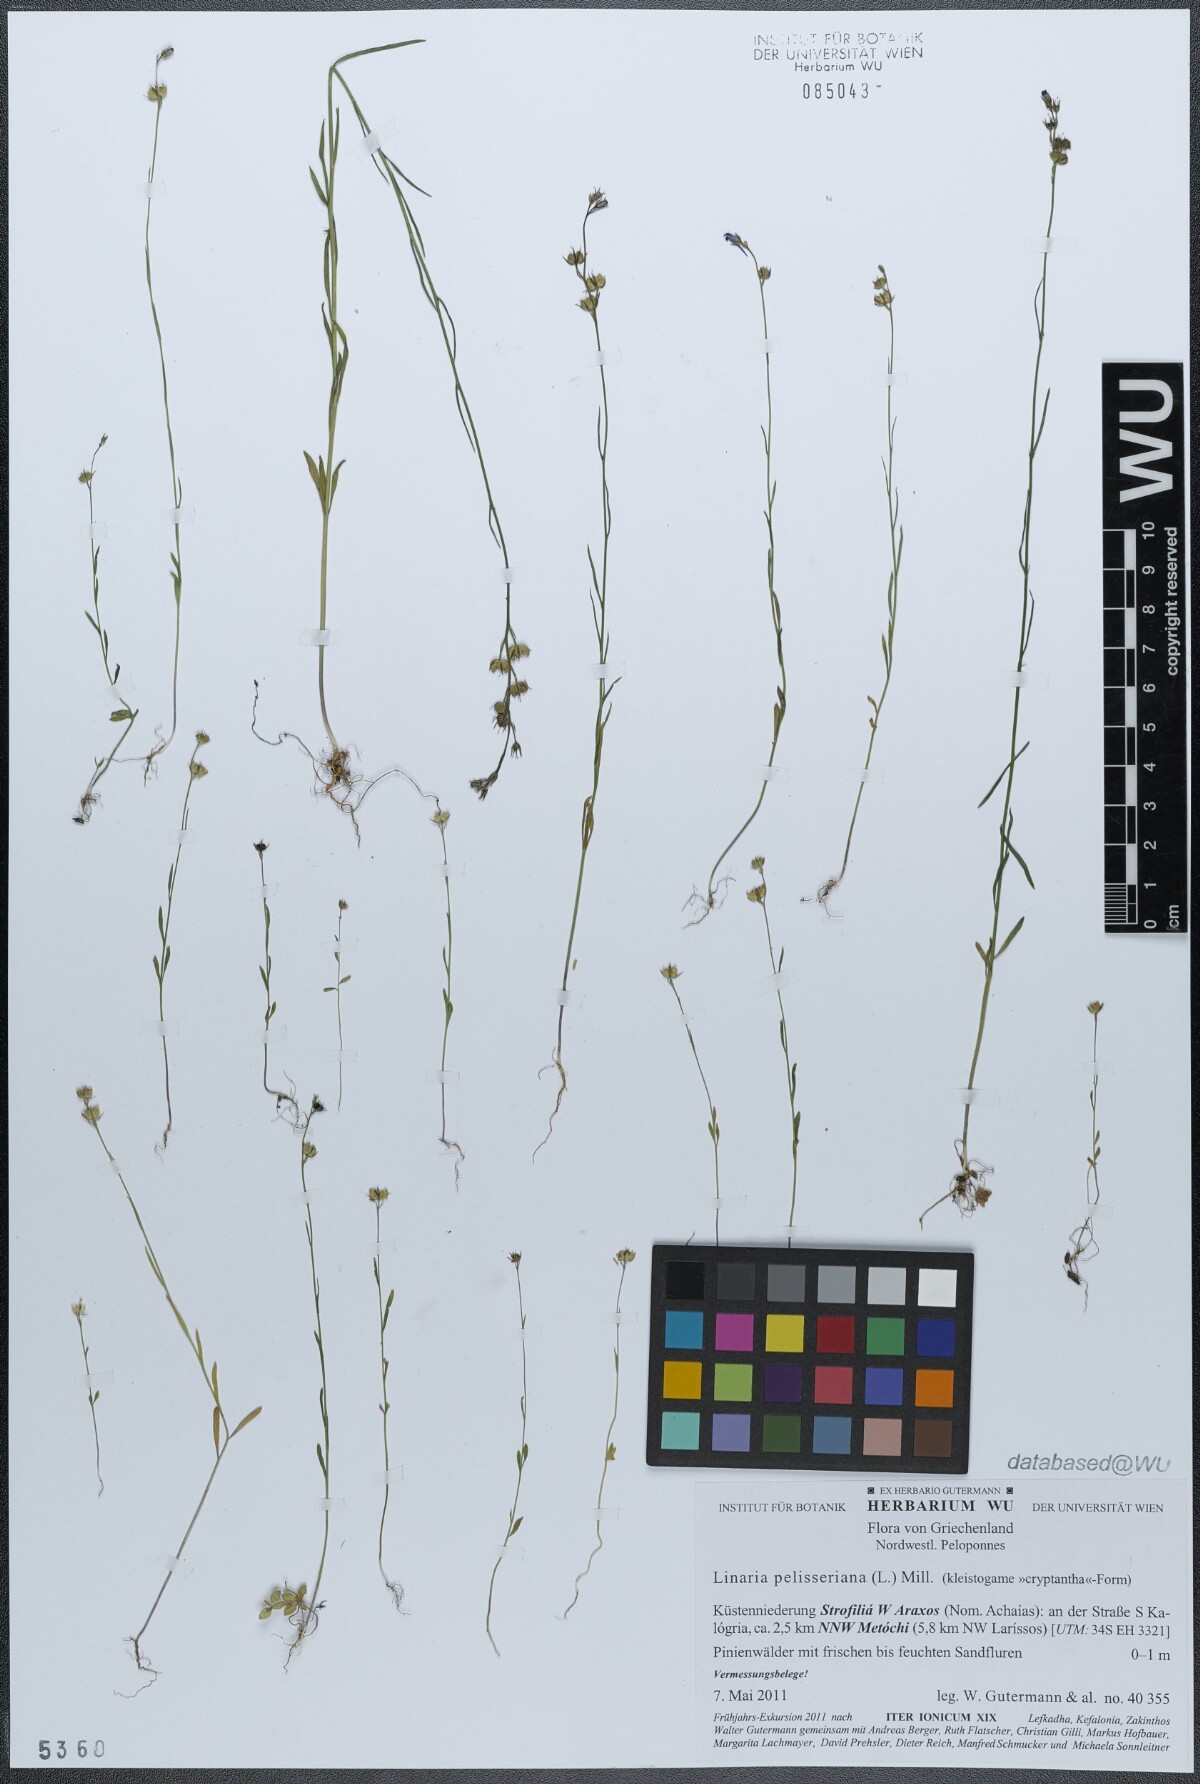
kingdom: Plantae
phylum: Tracheophyta
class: Magnoliopsida
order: Lamiales
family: Plantaginaceae
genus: Linaria
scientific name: Linaria pelisseriana
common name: Jersey toadflax
